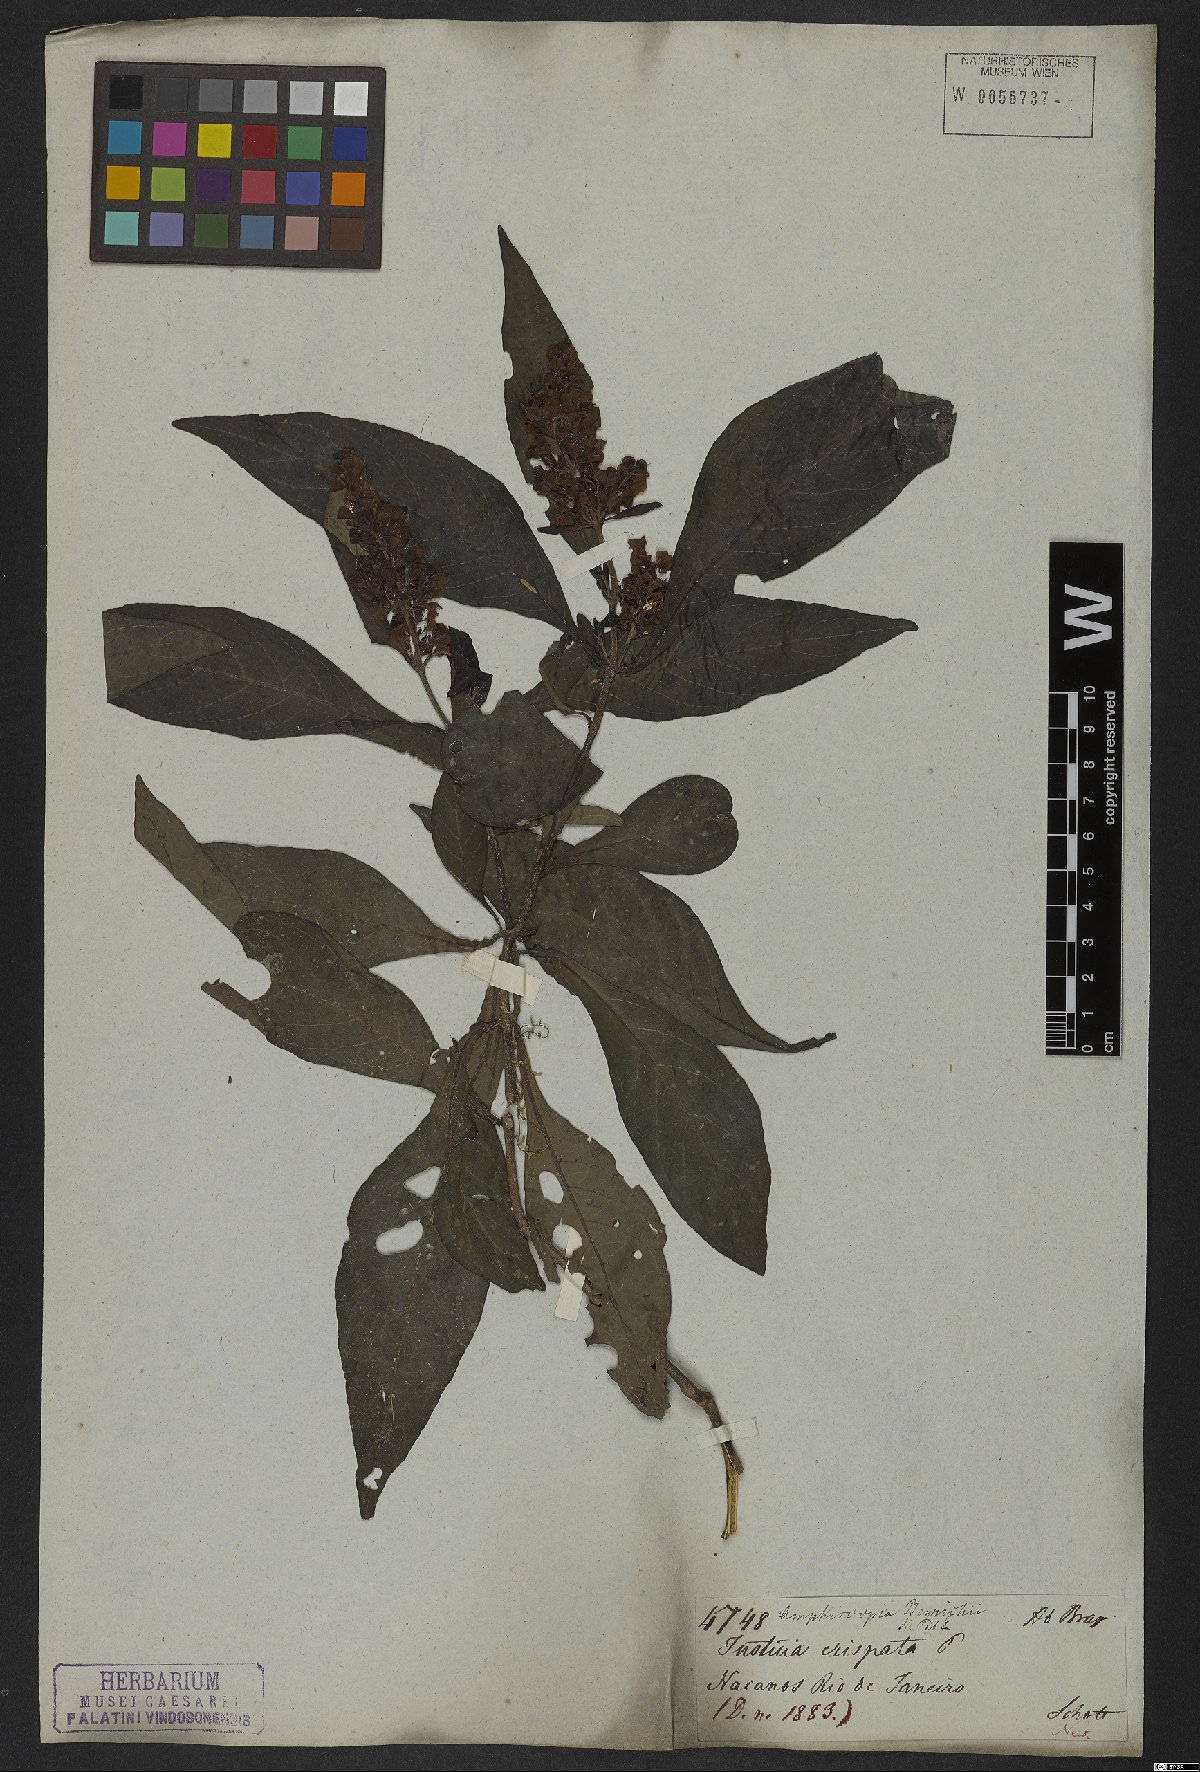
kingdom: Plantae
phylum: Tracheophyta
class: Magnoliopsida
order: Lamiales
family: Acanthaceae
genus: Dianthera
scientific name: Dianthera brasiliensis
